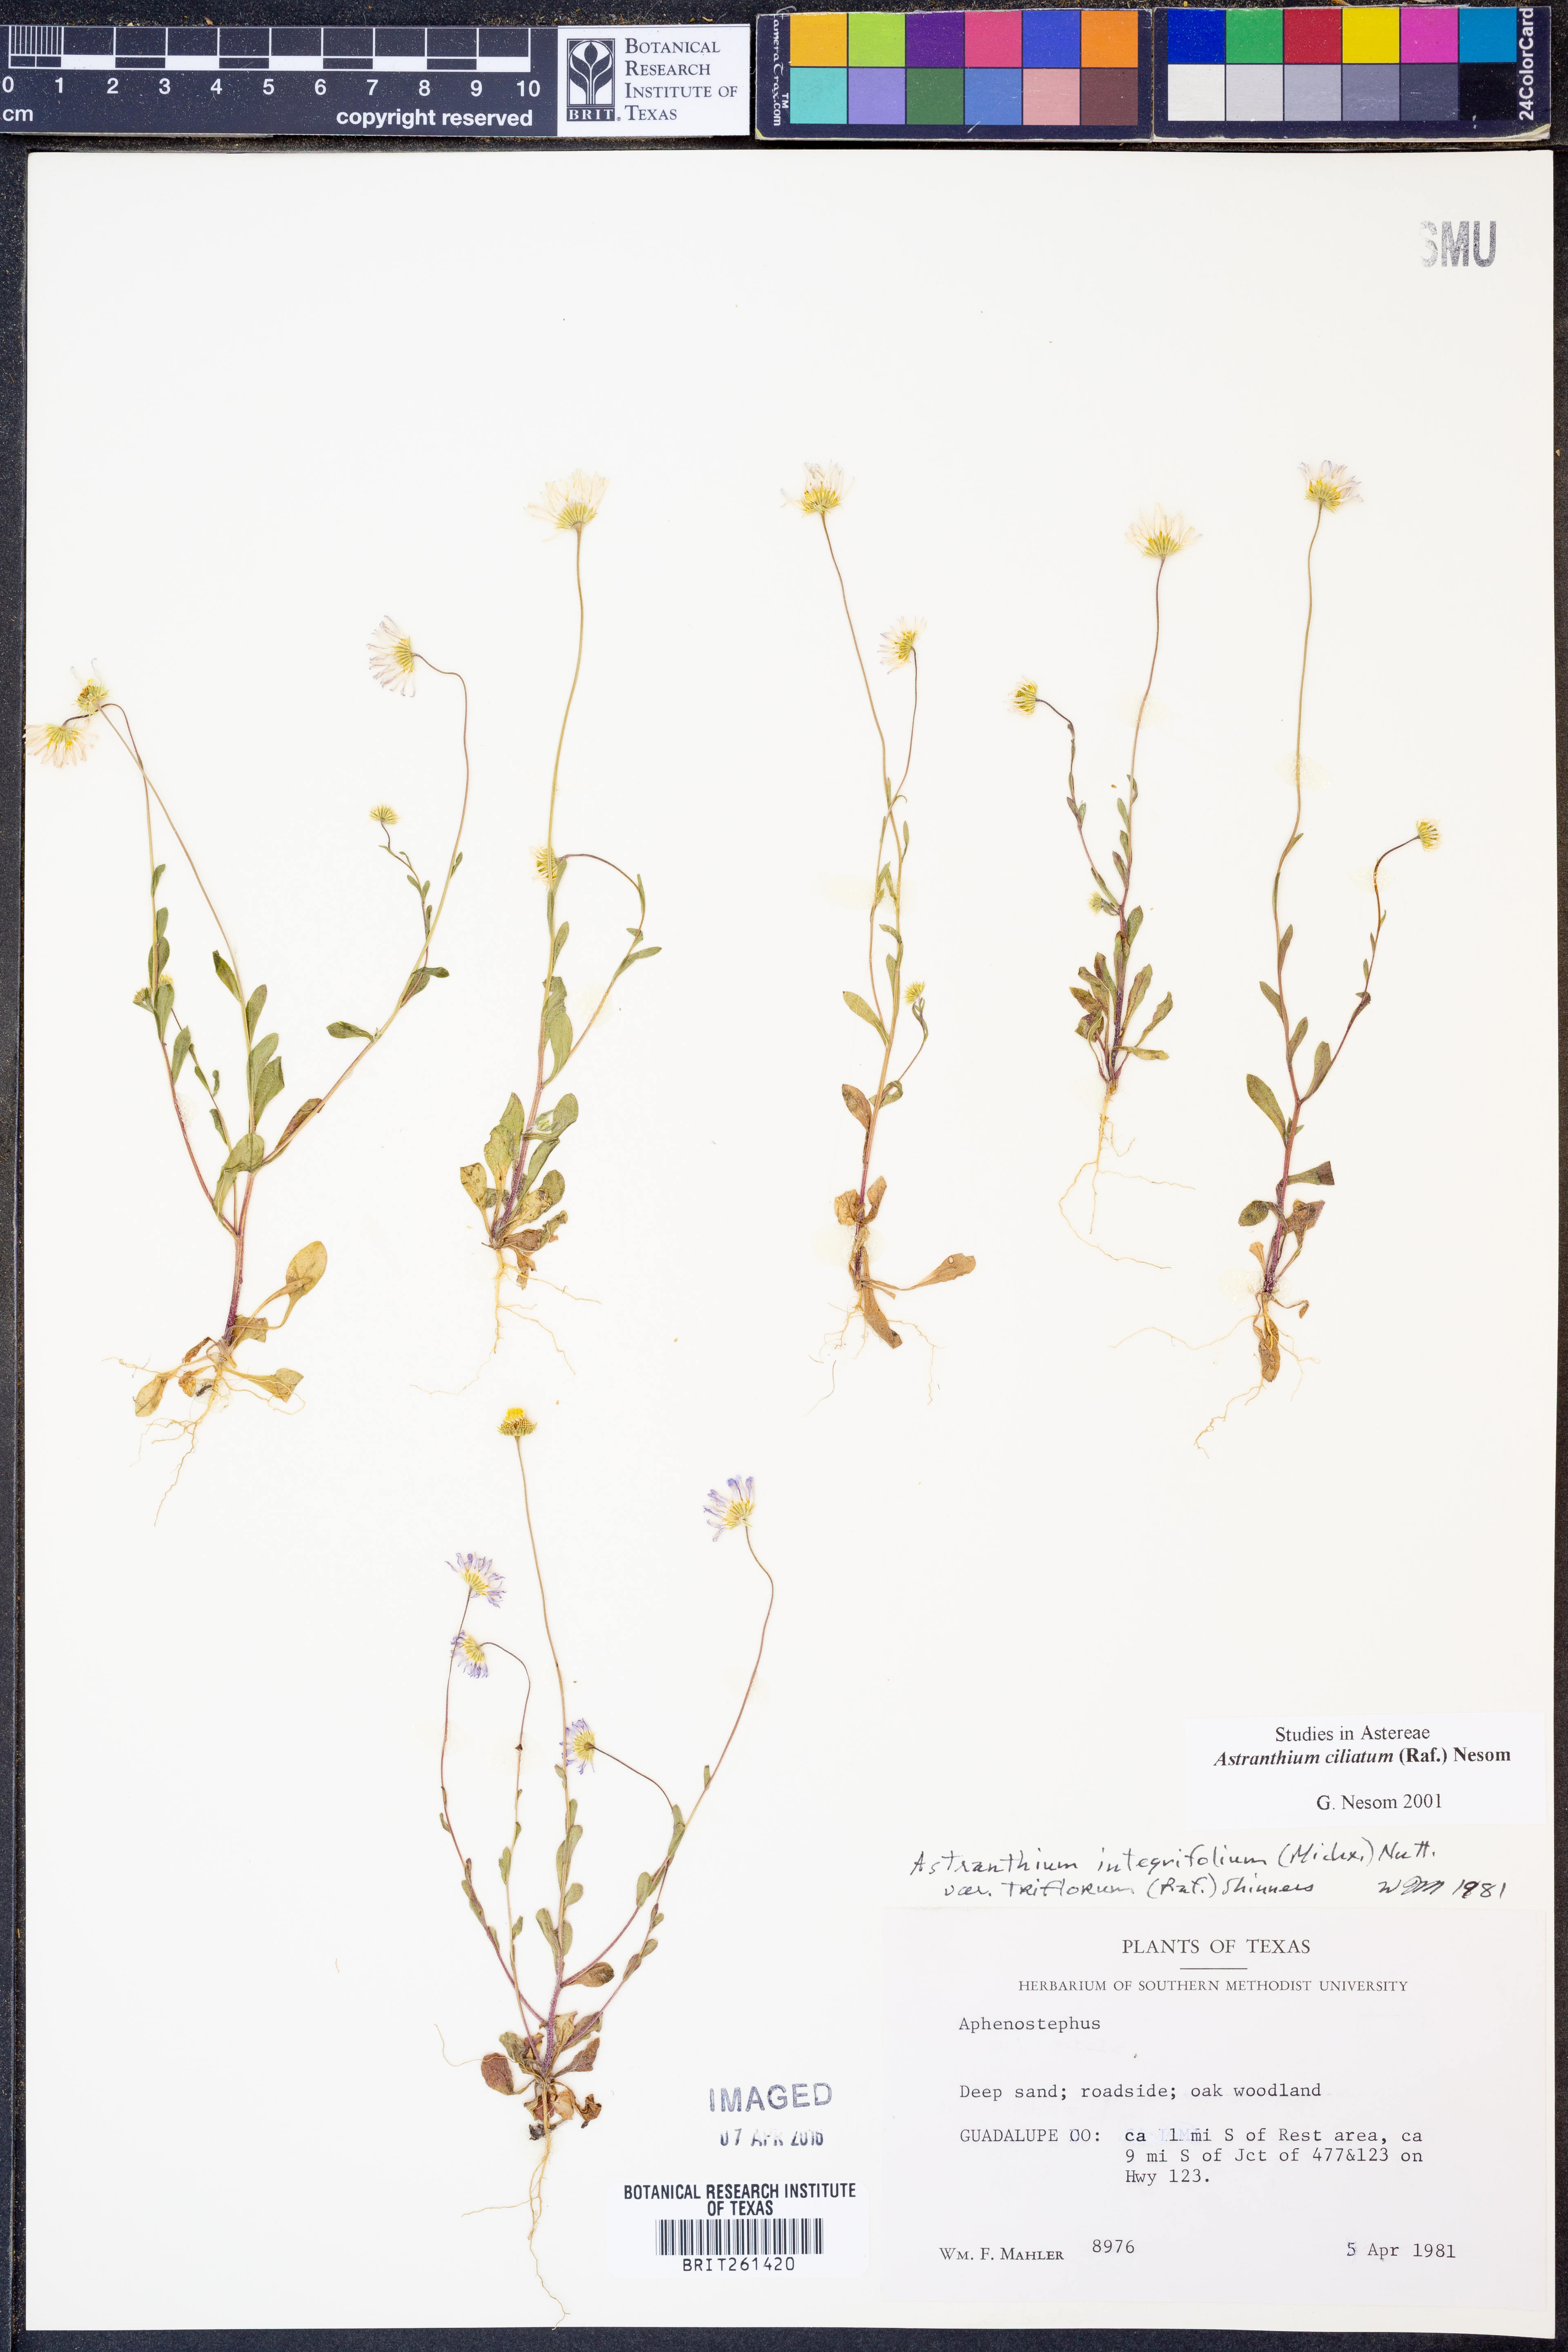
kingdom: Plantae
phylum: Tracheophyta
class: Magnoliopsida
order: Asterales
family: Asteraceae
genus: Astranthium
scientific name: Astranthium ciliatum
